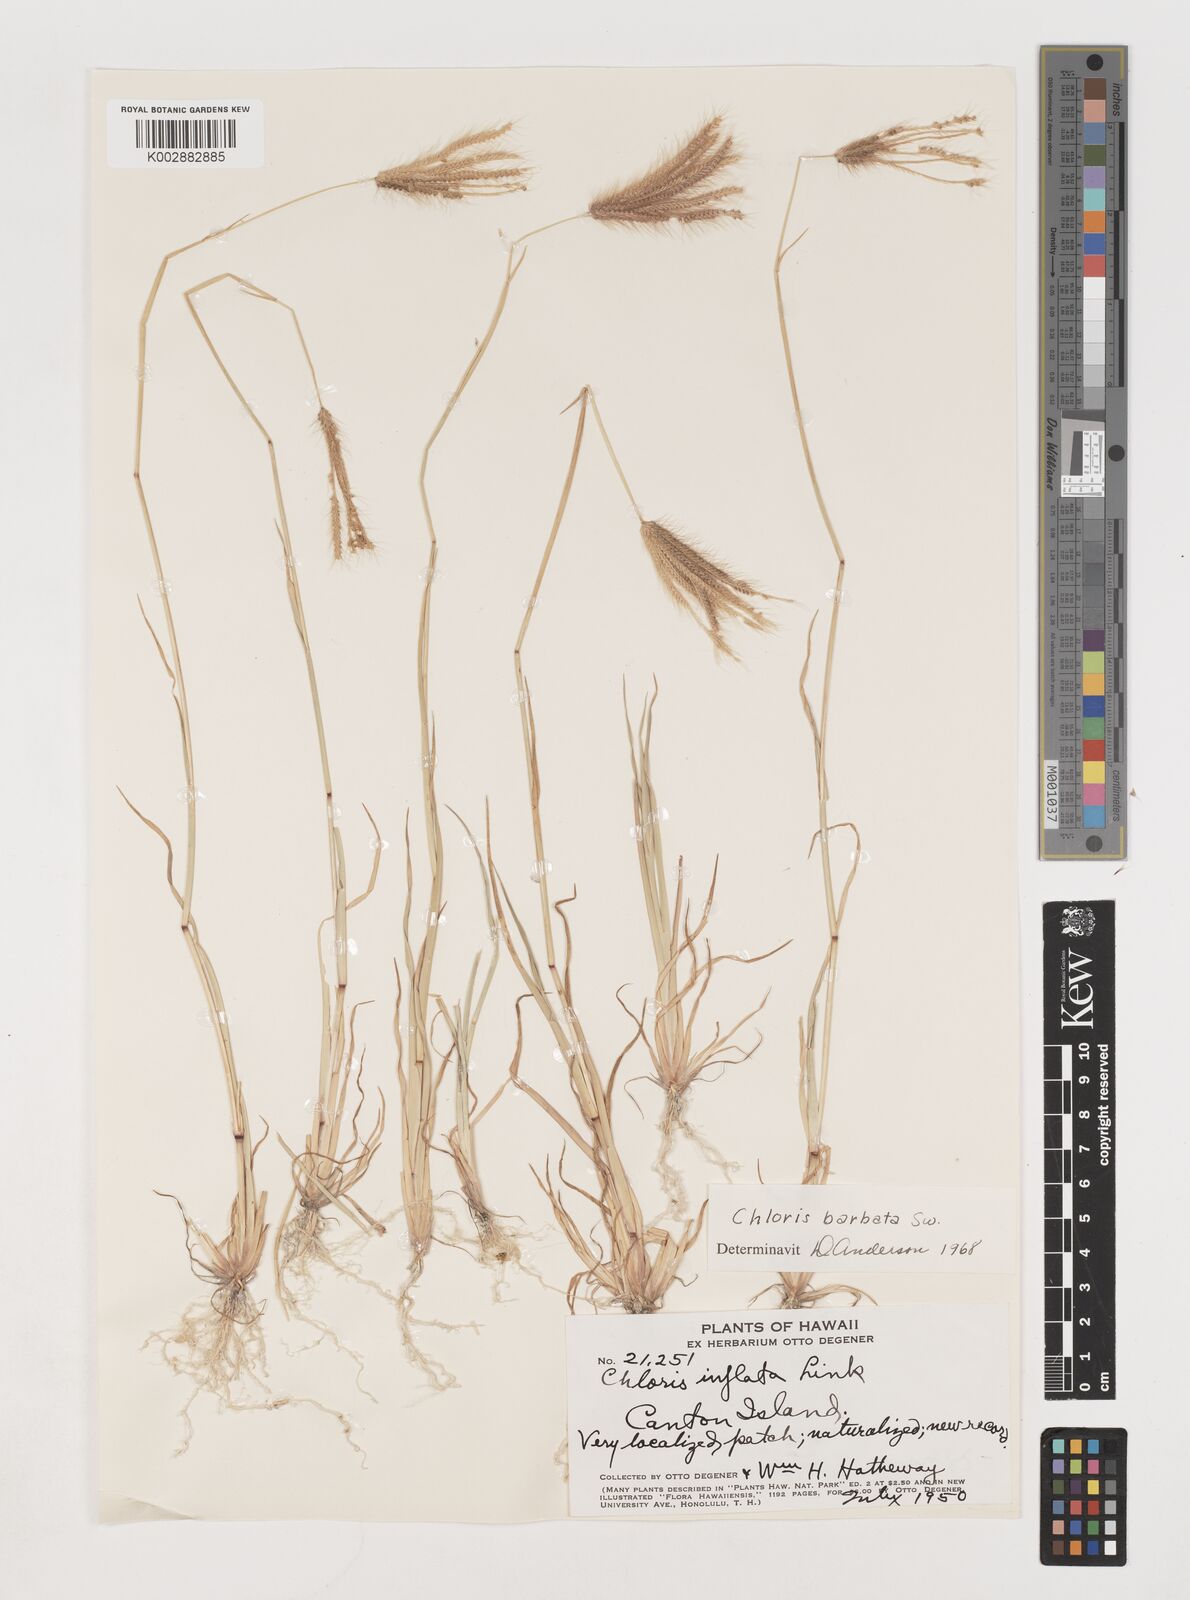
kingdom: Plantae
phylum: Tracheophyta
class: Liliopsida
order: Poales
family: Poaceae
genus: Chloris
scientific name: Chloris barbata
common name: Swollen fingergrass
